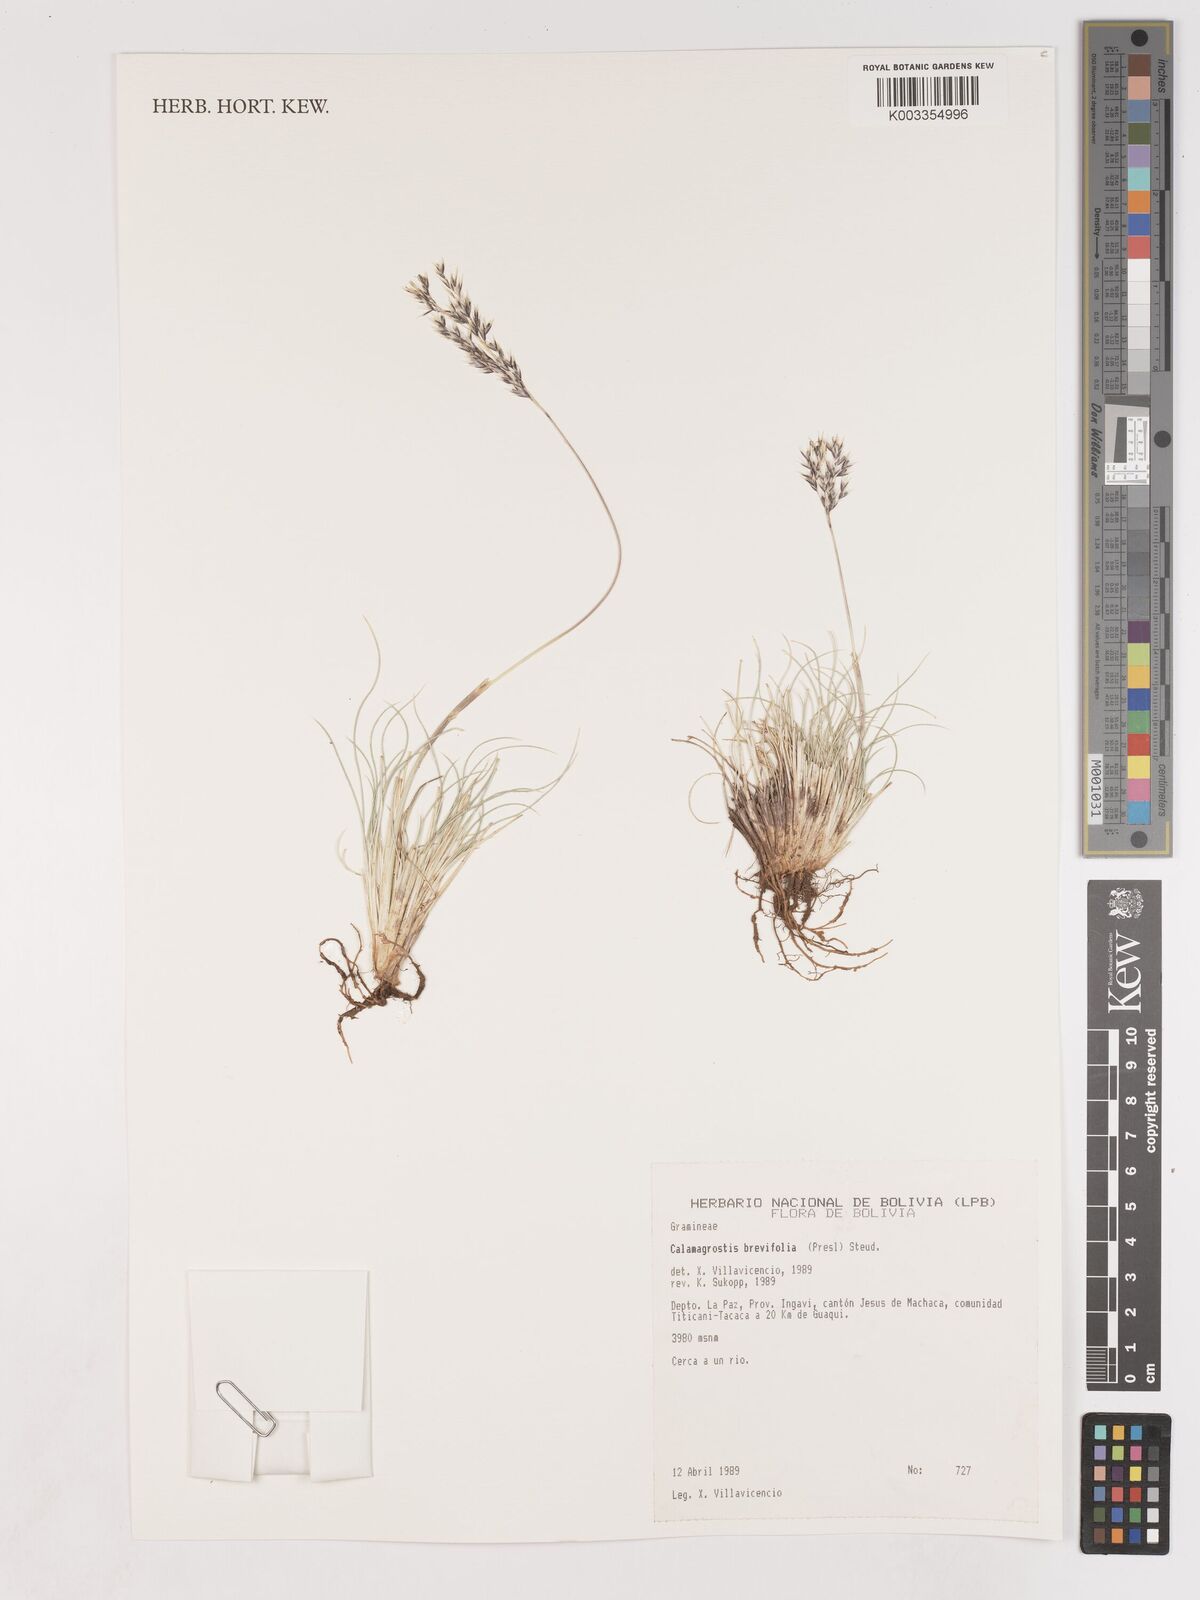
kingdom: Plantae
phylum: Tracheophyta
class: Liliopsida
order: Poales
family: Poaceae
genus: Cinnagrostis
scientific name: Cinnagrostis brevifolia
